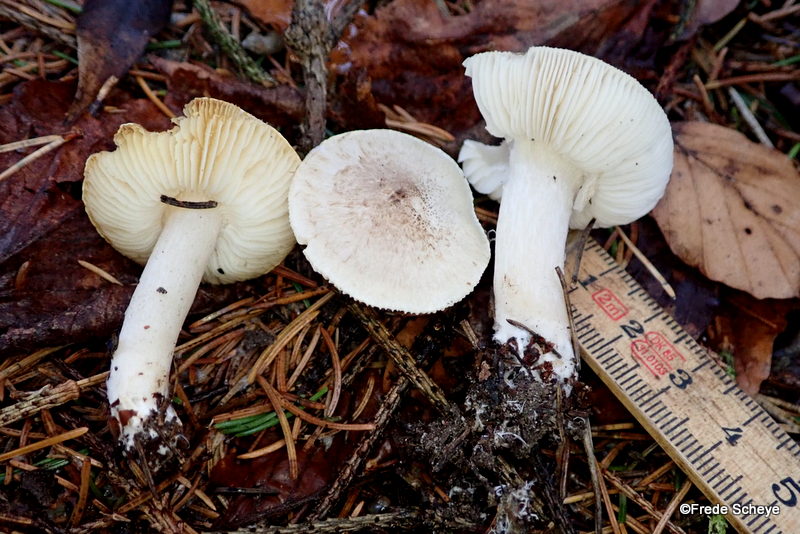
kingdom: Fungi
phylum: Basidiomycota
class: Agaricomycetes
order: Agaricales
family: Tricholomataceae
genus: Tricholoma
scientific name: Tricholoma scalpturatum
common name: gulplettet ridderhat
